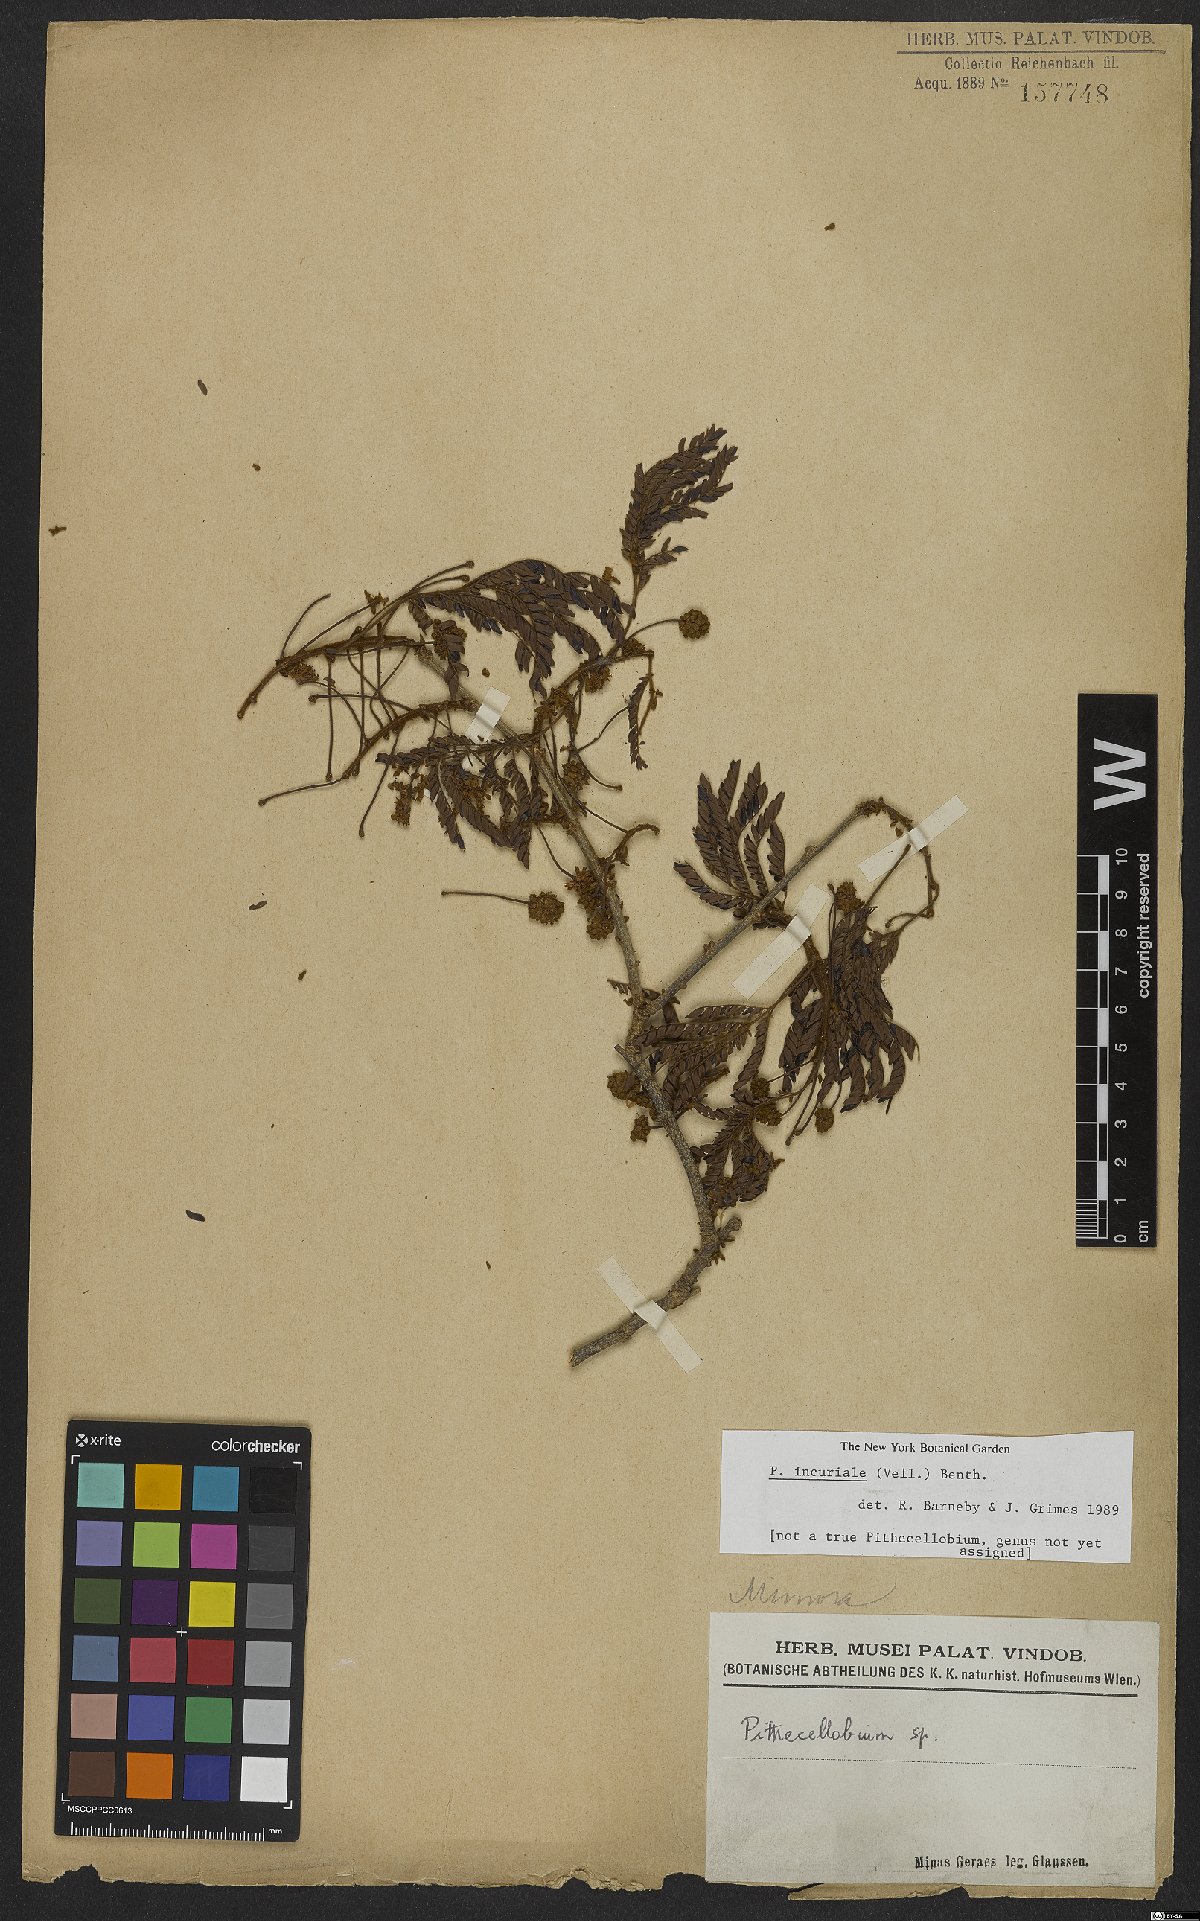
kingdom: Plantae
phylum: Tracheophyta
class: Magnoliopsida
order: Fabales
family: Fabaceae
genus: Leucochloron
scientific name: Leucochloron incuriale
